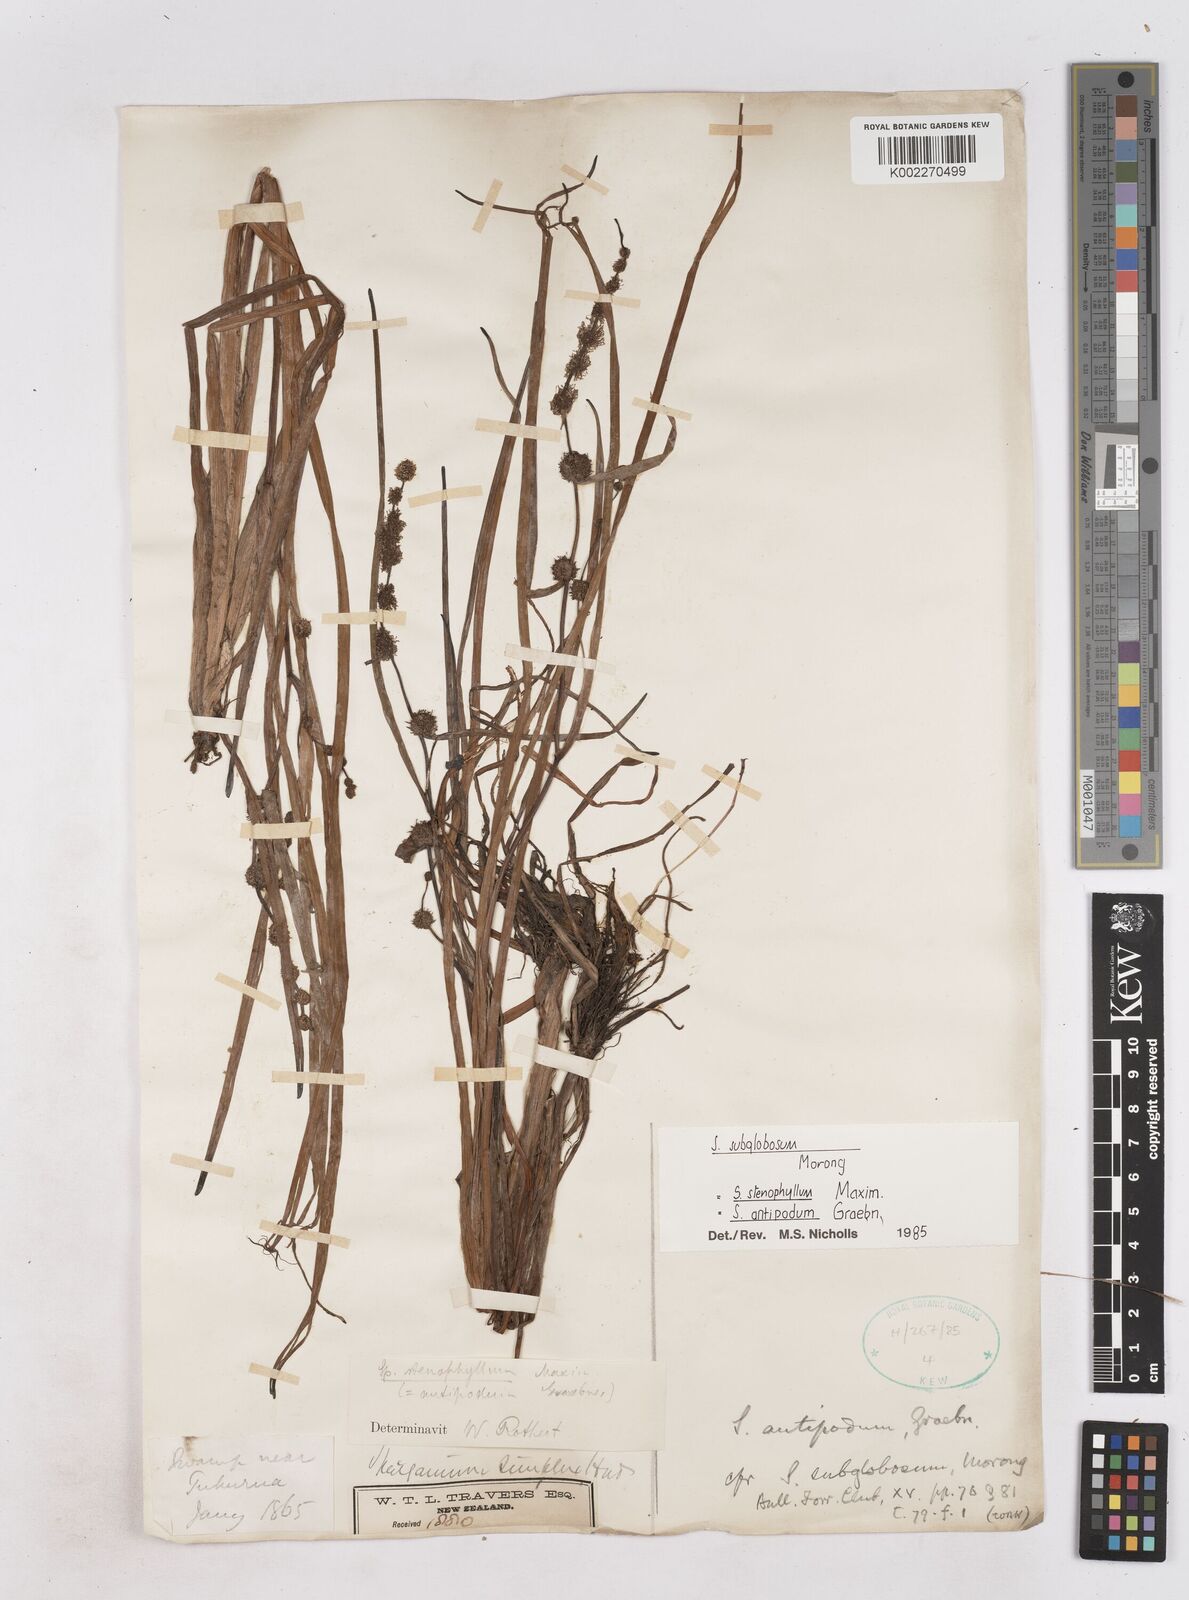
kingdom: Plantae
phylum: Tracheophyta
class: Liliopsida
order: Poales
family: Typhaceae
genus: Sparganium
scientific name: Sparganium subglobosum
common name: Burr­-reed
